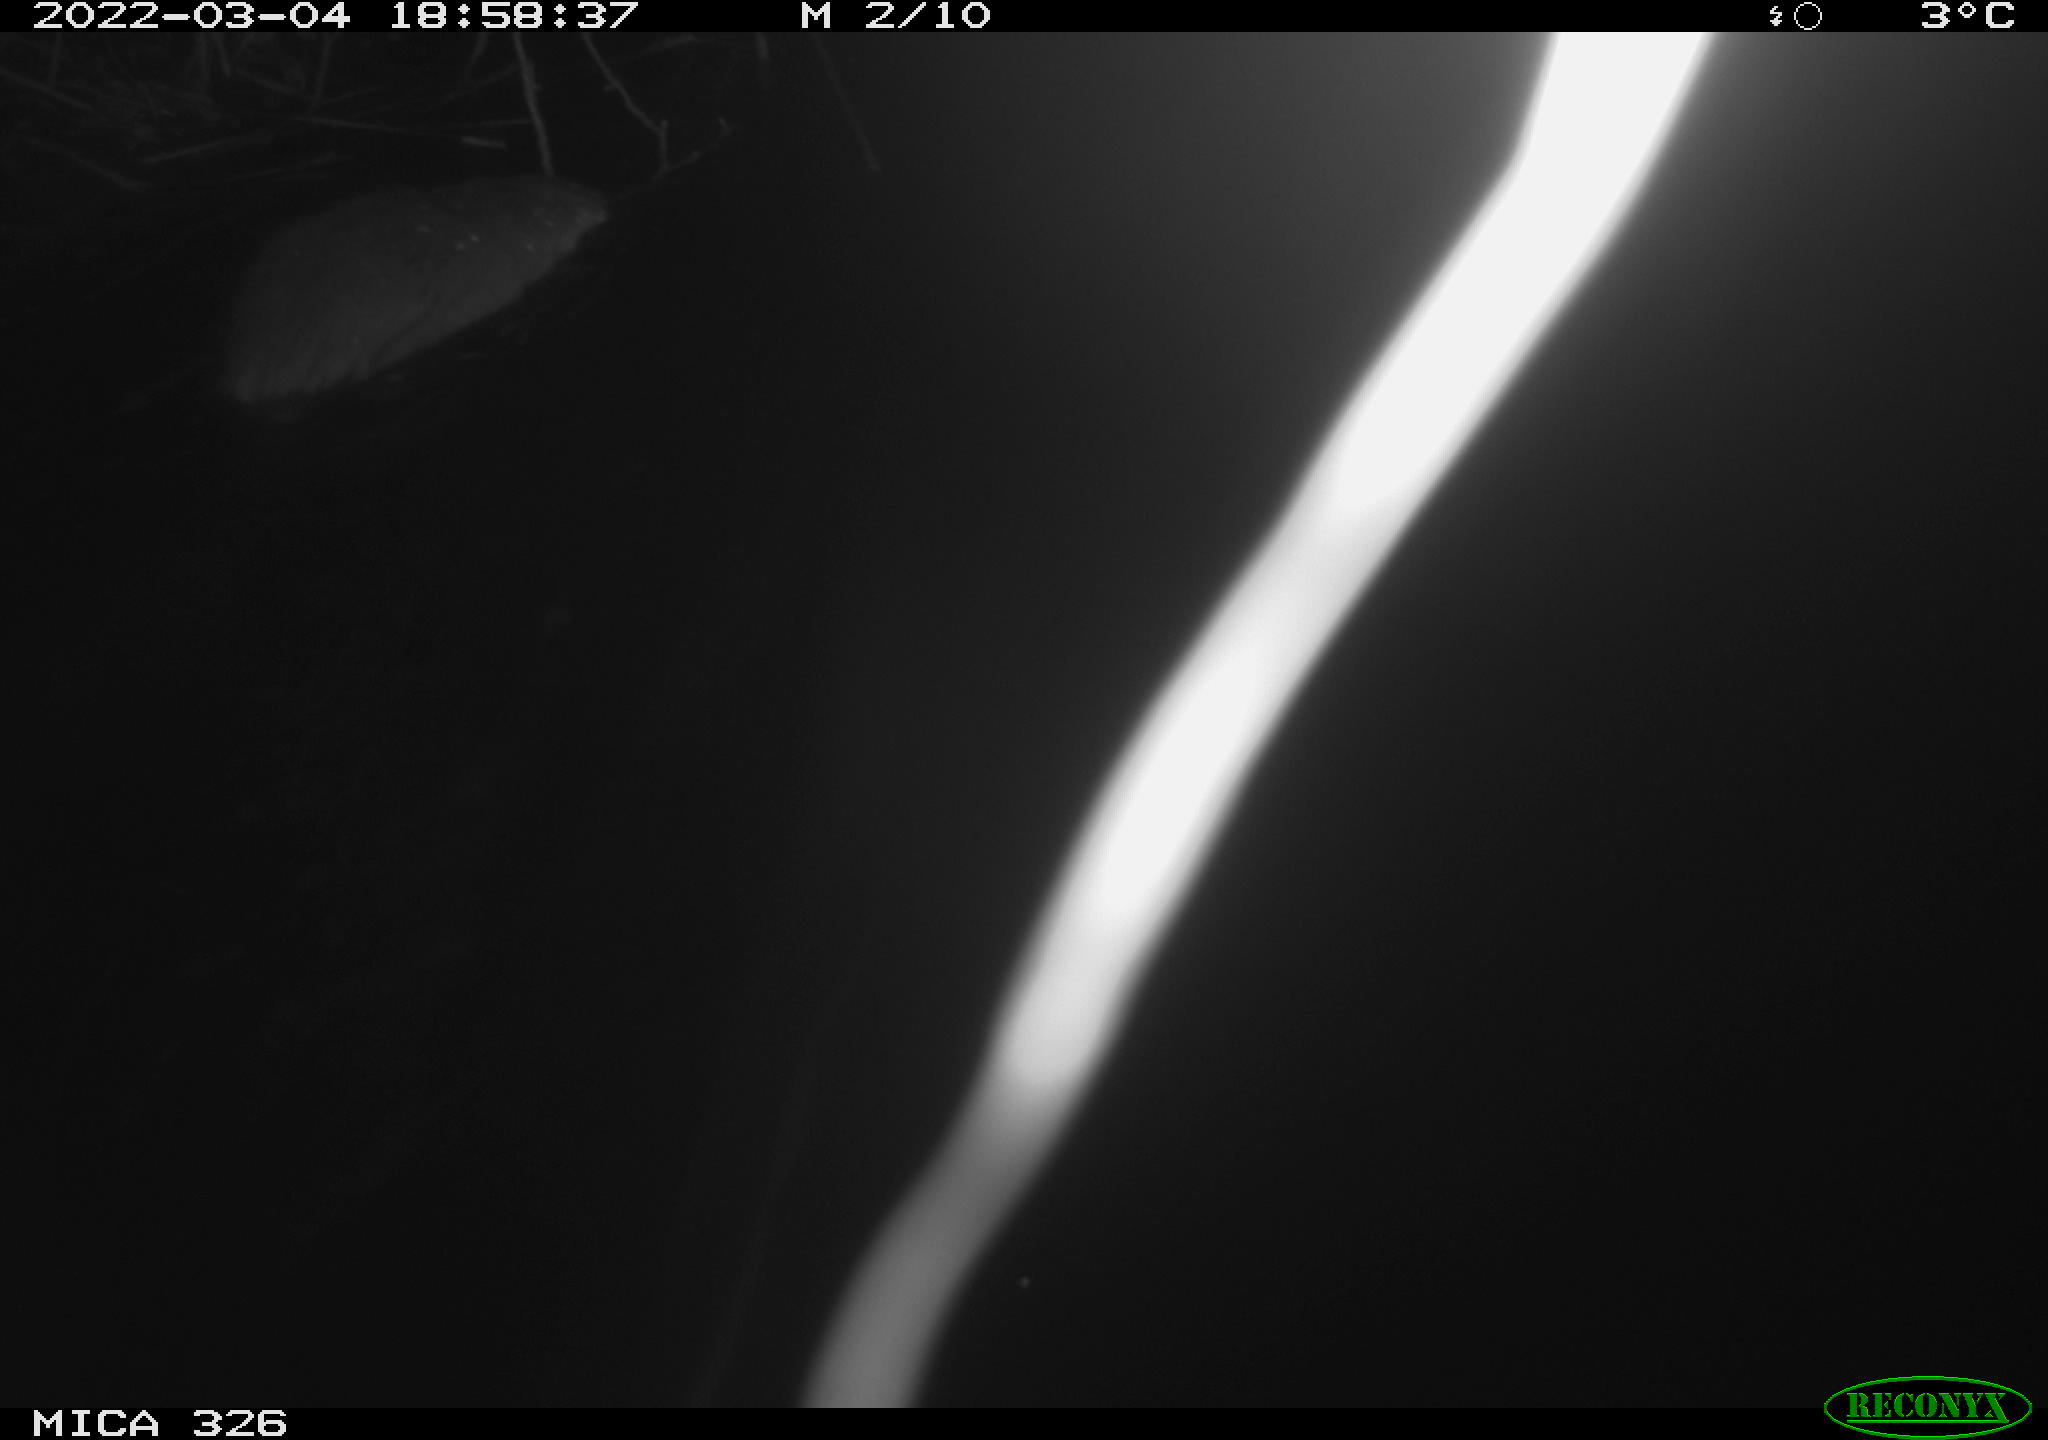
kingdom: Animalia
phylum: Chordata
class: Mammalia
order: Rodentia
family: Cricetidae
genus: Ondatra
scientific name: Ondatra zibethicus
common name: Muskrat
